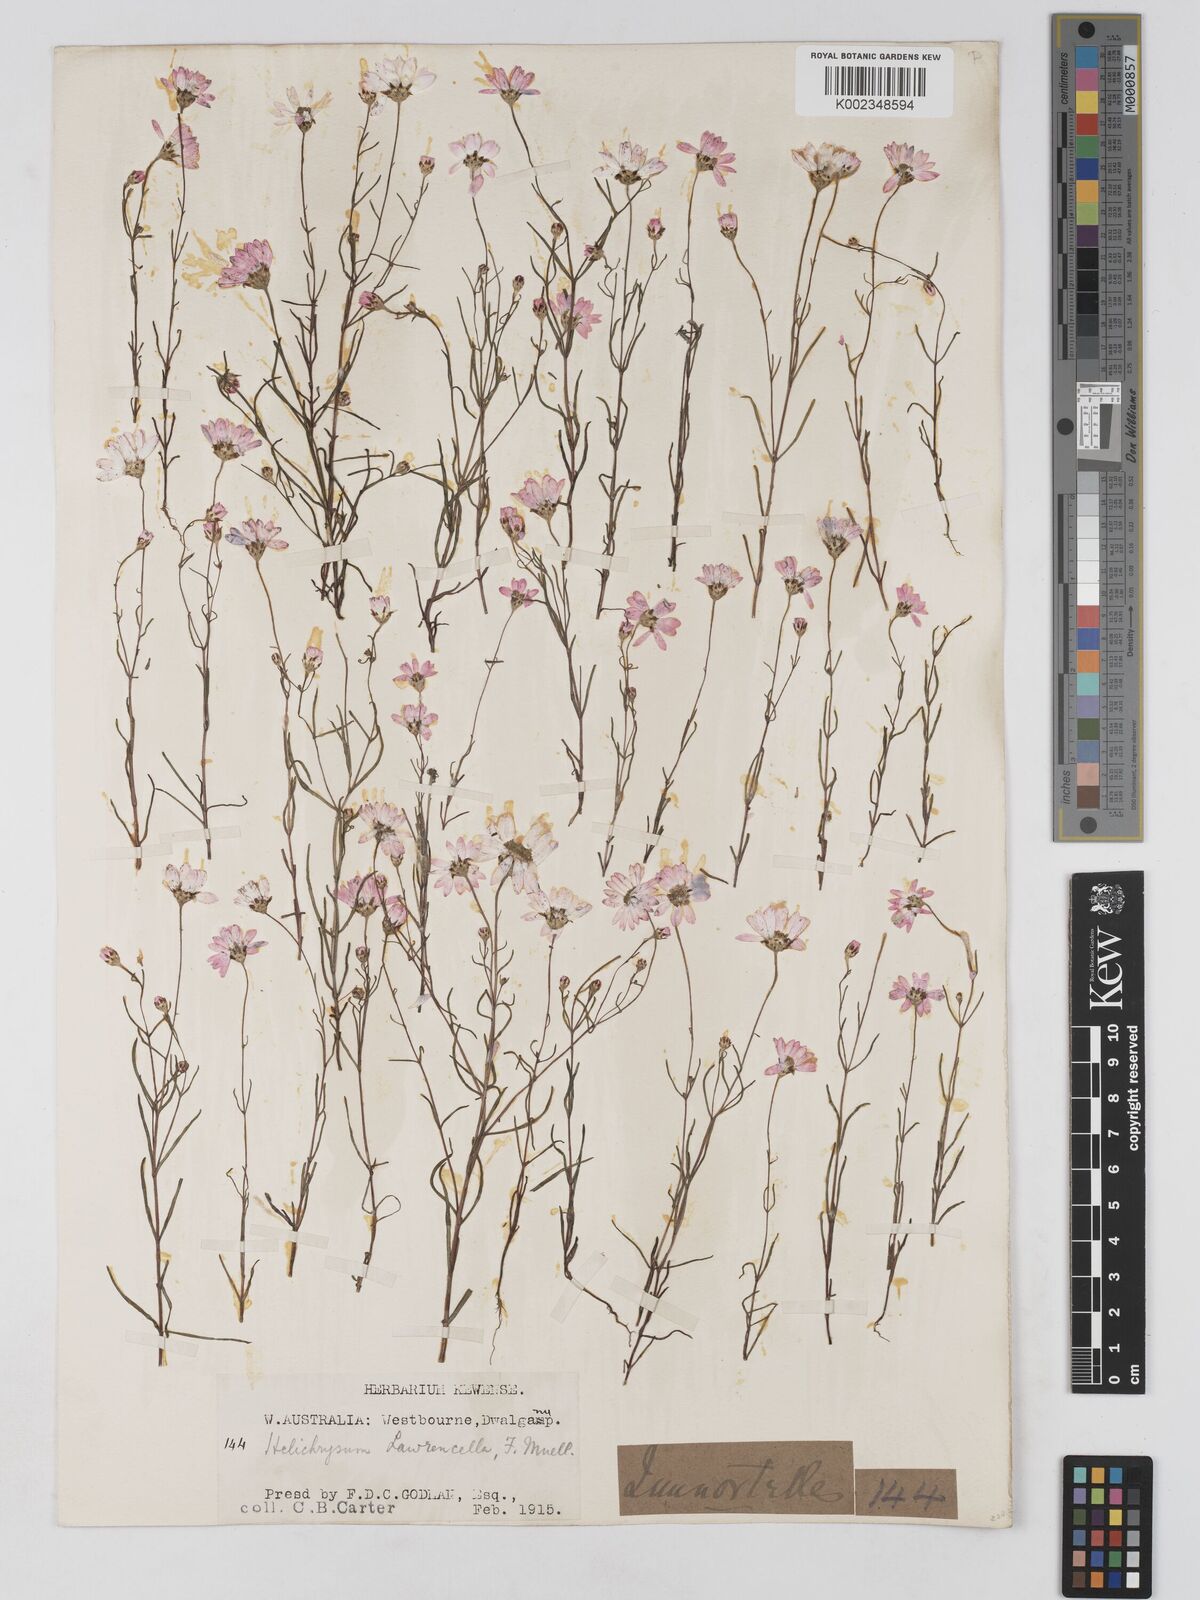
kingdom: Plantae
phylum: Tracheophyta
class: Magnoliopsida
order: Asterales
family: Asteraceae
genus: Lawrencella
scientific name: Lawrencella rosea
